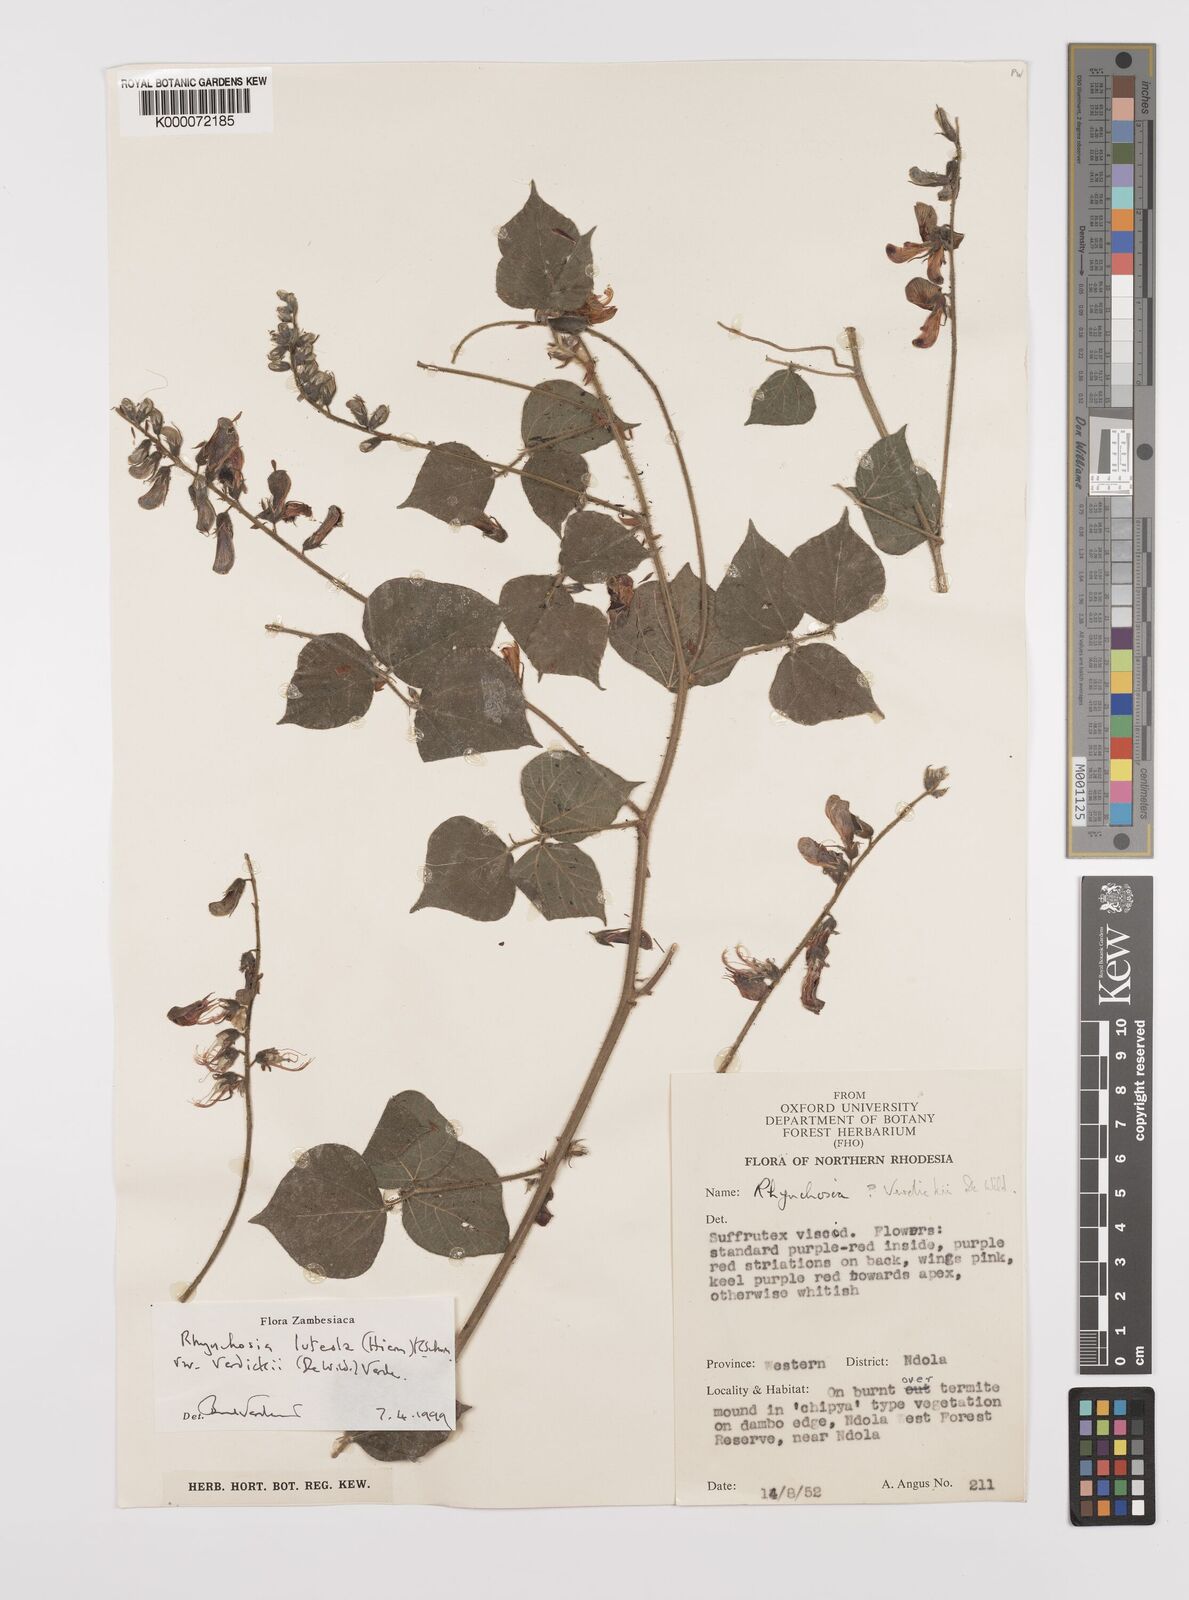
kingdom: Plantae
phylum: Tracheophyta
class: Magnoliopsida
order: Fabales
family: Fabaceae
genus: Rhynchosia
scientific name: Rhynchosia luteola
